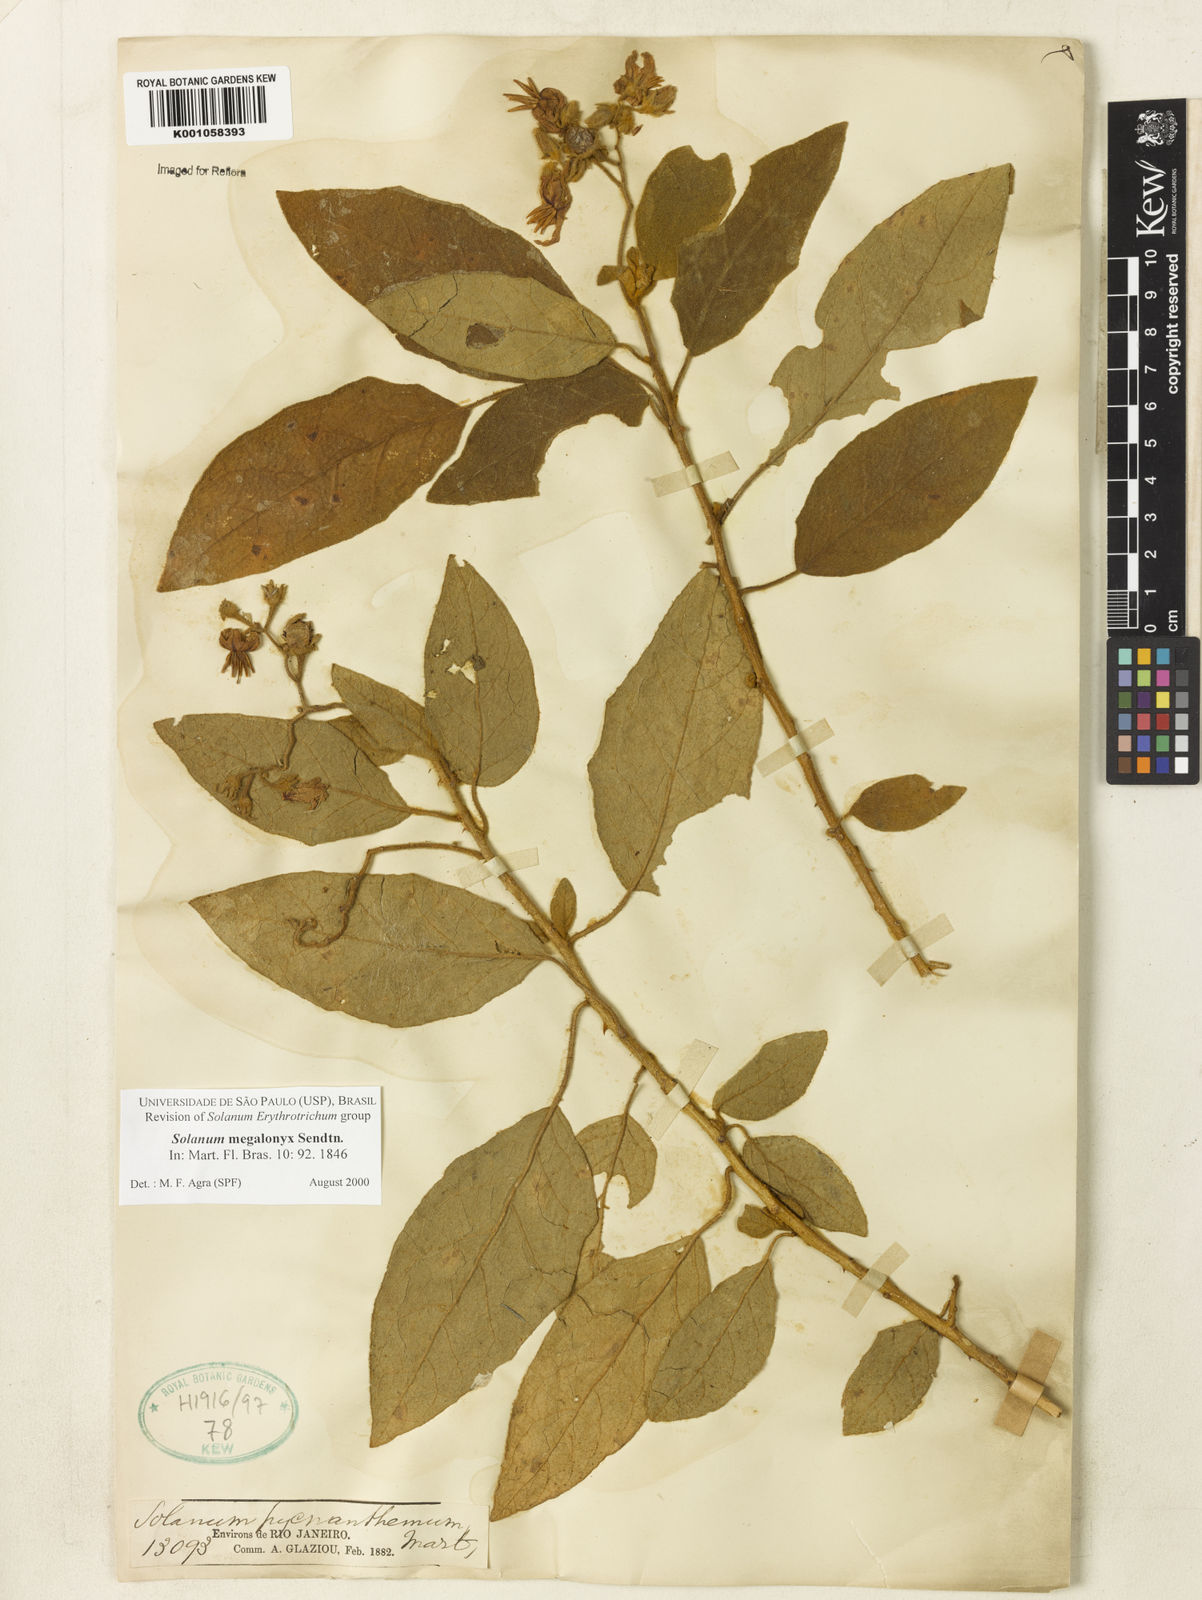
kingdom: Plantae
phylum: Tracheophyta
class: Magnoliopsida
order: Solanales
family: Solanaceae
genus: Solanum
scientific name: Solanum megalonyx
